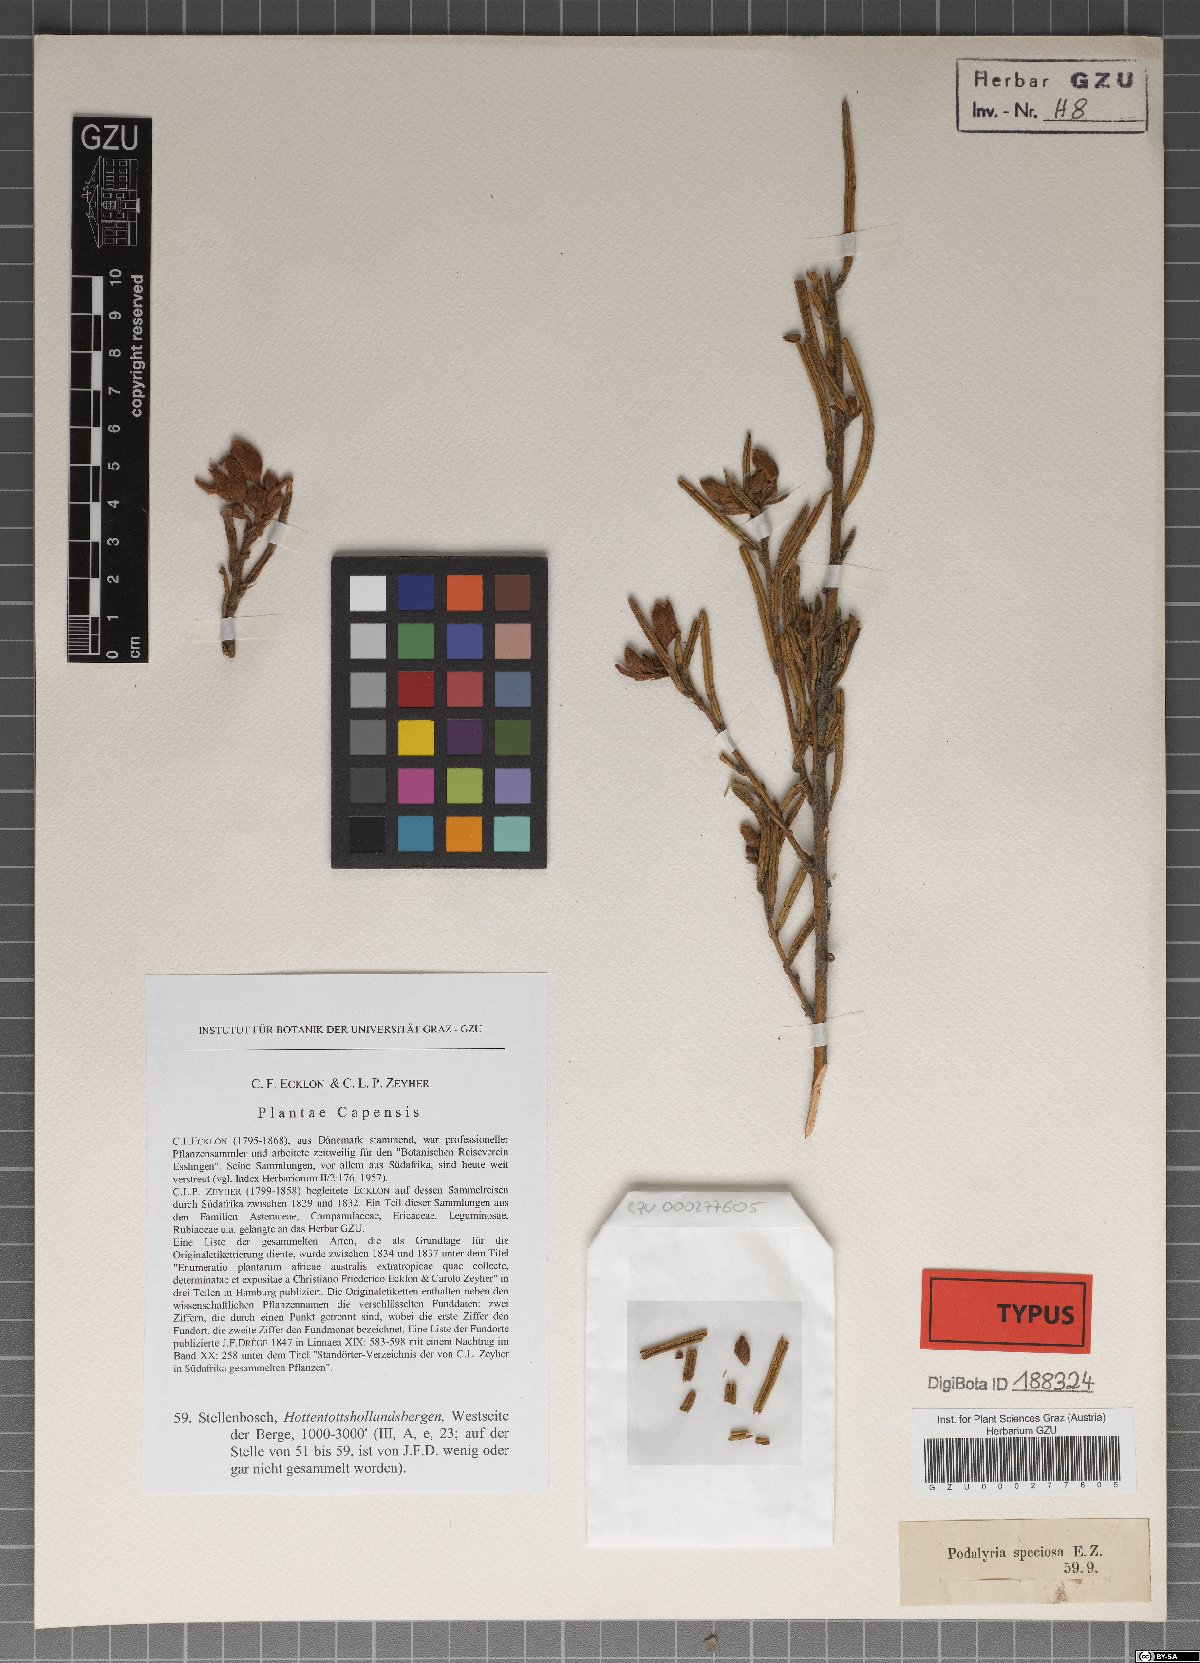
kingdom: Plantae
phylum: Tracheophyta
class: Magnoliopsida
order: Fabales
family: Fabaceae
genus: Podalyria
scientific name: Podalyria oleifolia
